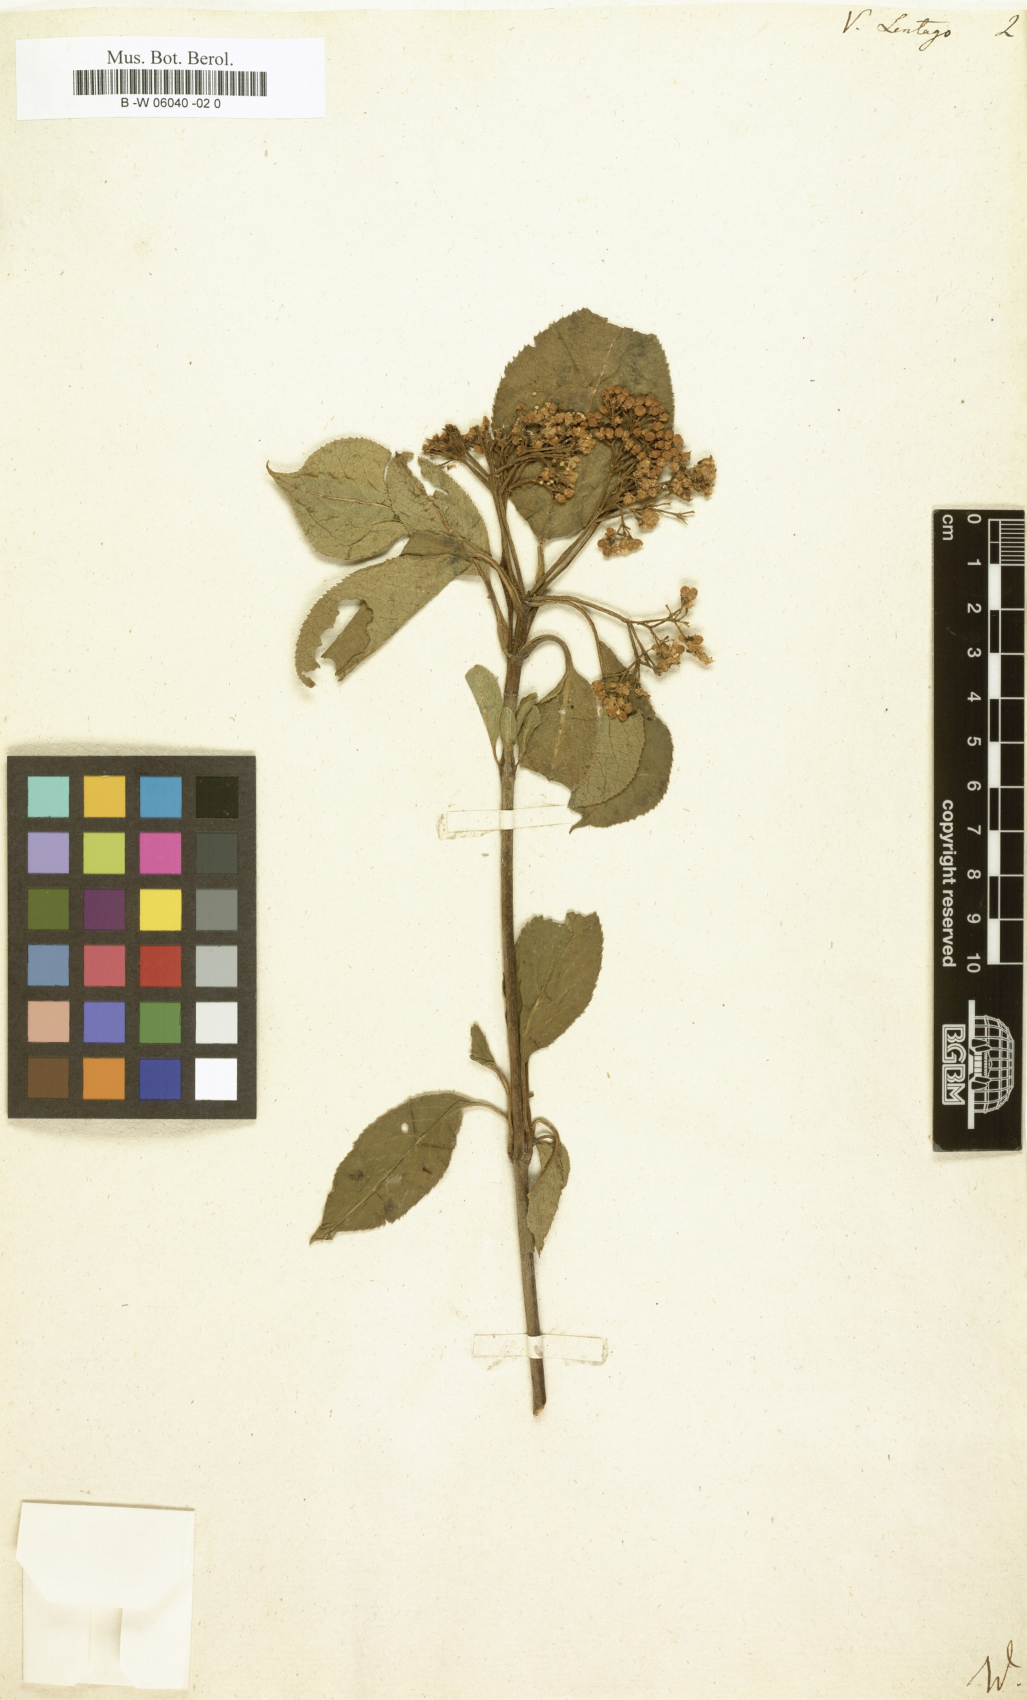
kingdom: Plantae
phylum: Tracheophyta
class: Magnoliopsida
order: Dipsacales
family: Viburnaceae
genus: Viburnum
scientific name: Viburnum lentago
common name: Black haw
